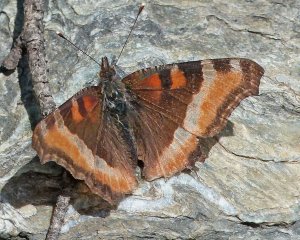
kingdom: Animalia
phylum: Arthropoda
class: Insecta
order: Lepidoptera
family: Nymphalidae
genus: Aglais
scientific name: Aglais milberti
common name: Milbert's Tortoiseshell
